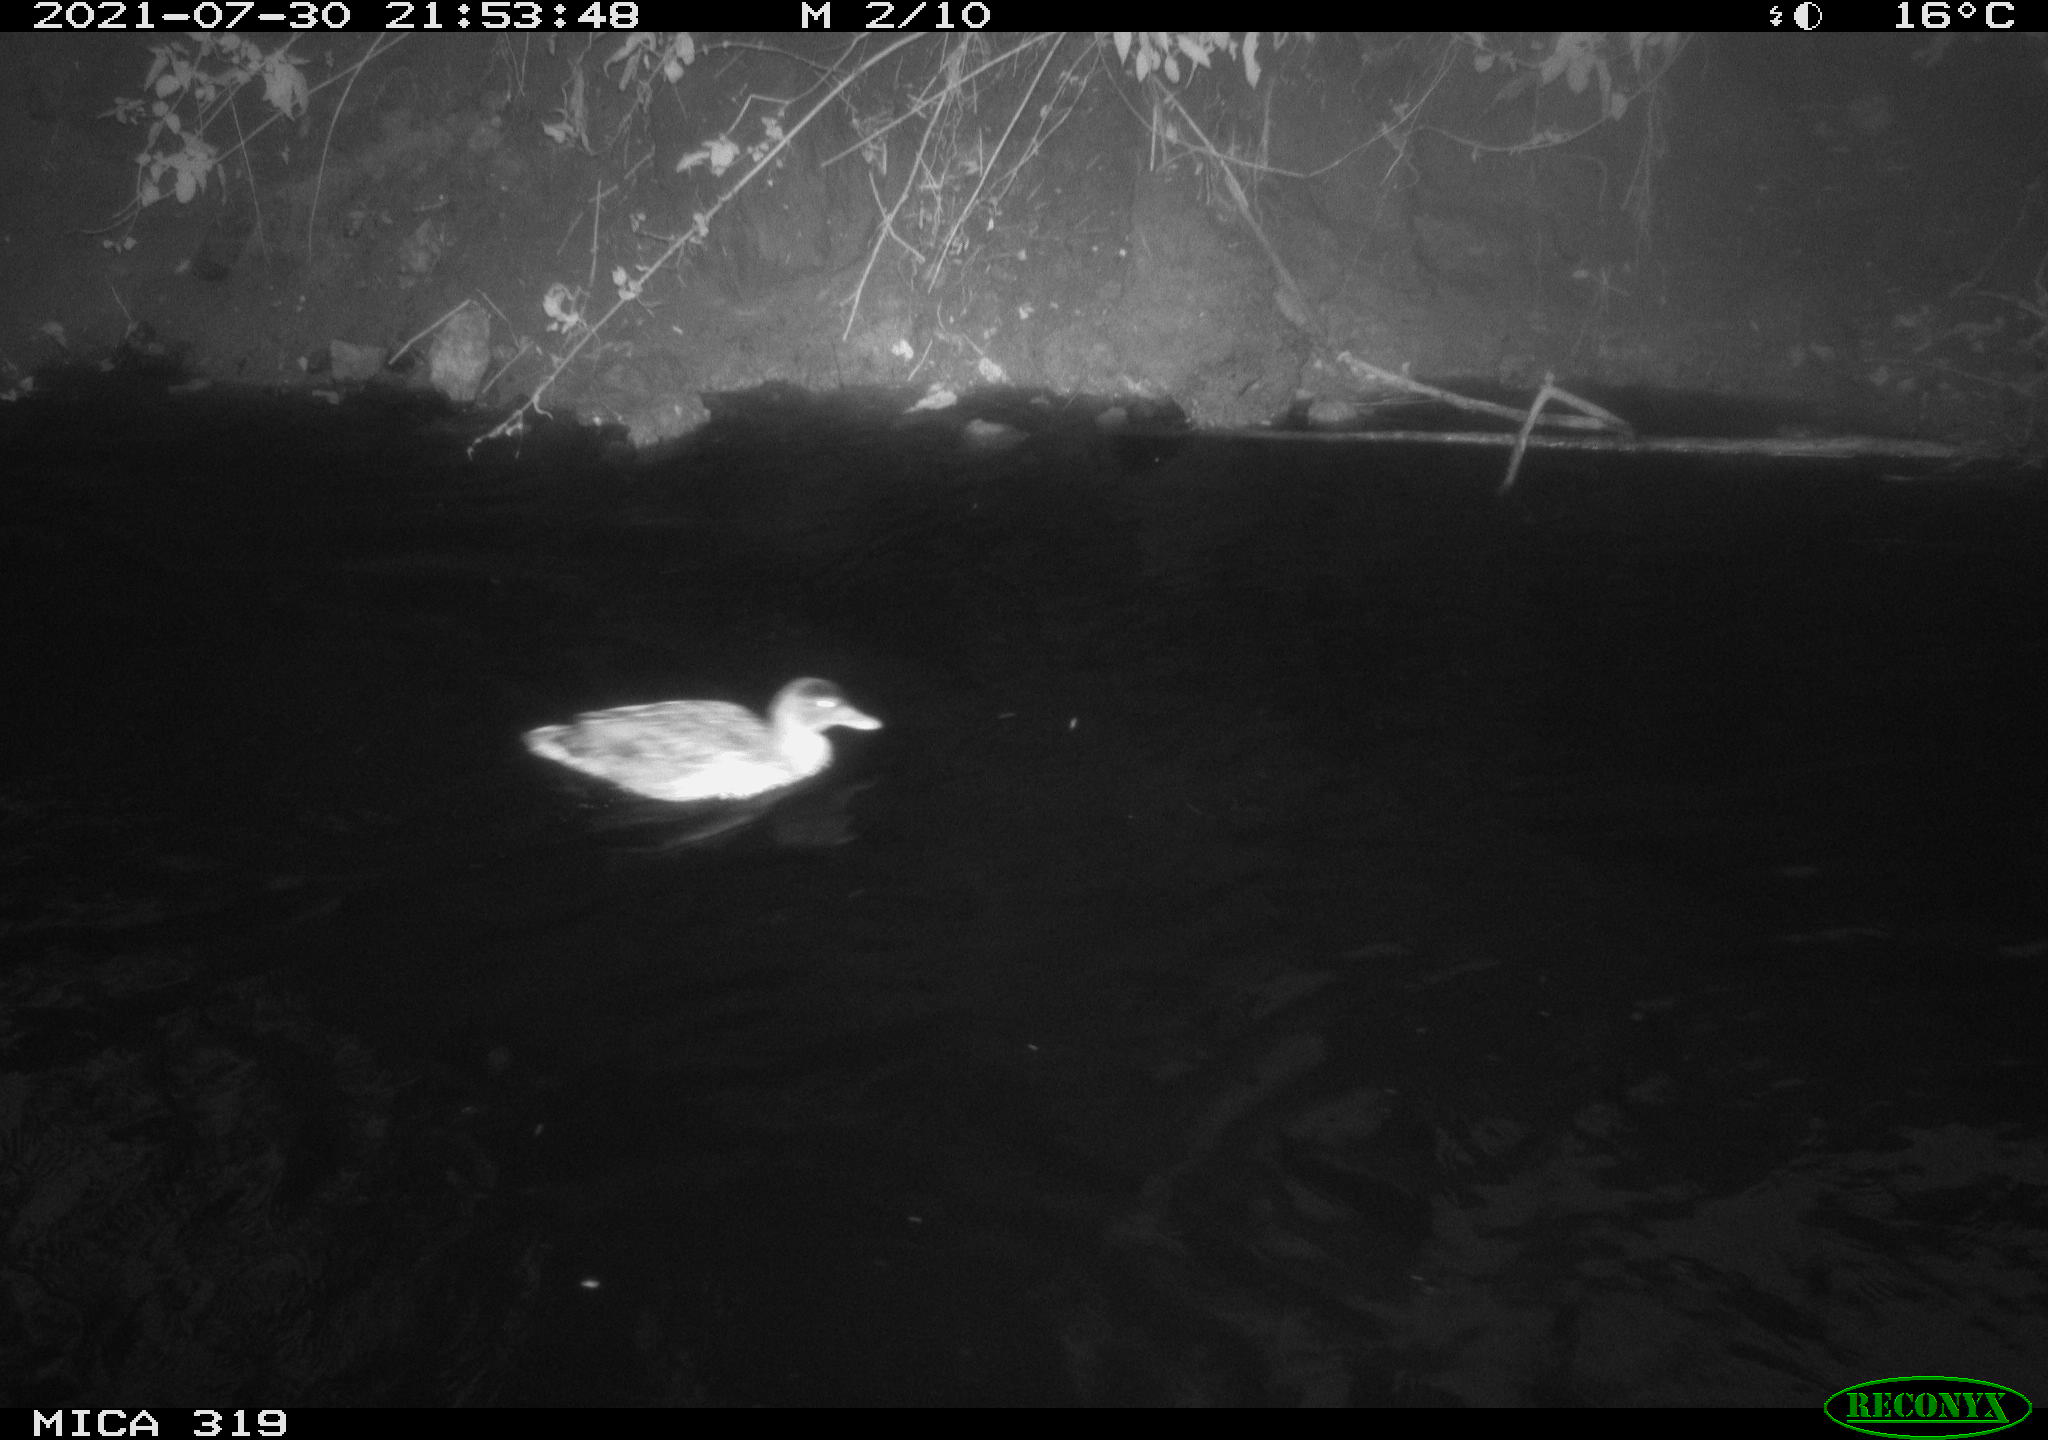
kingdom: Animalia
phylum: Chordata
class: Aves
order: Anseriformes
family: Anatidae
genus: Anas
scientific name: Anas platyrhynchos
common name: Mallard
